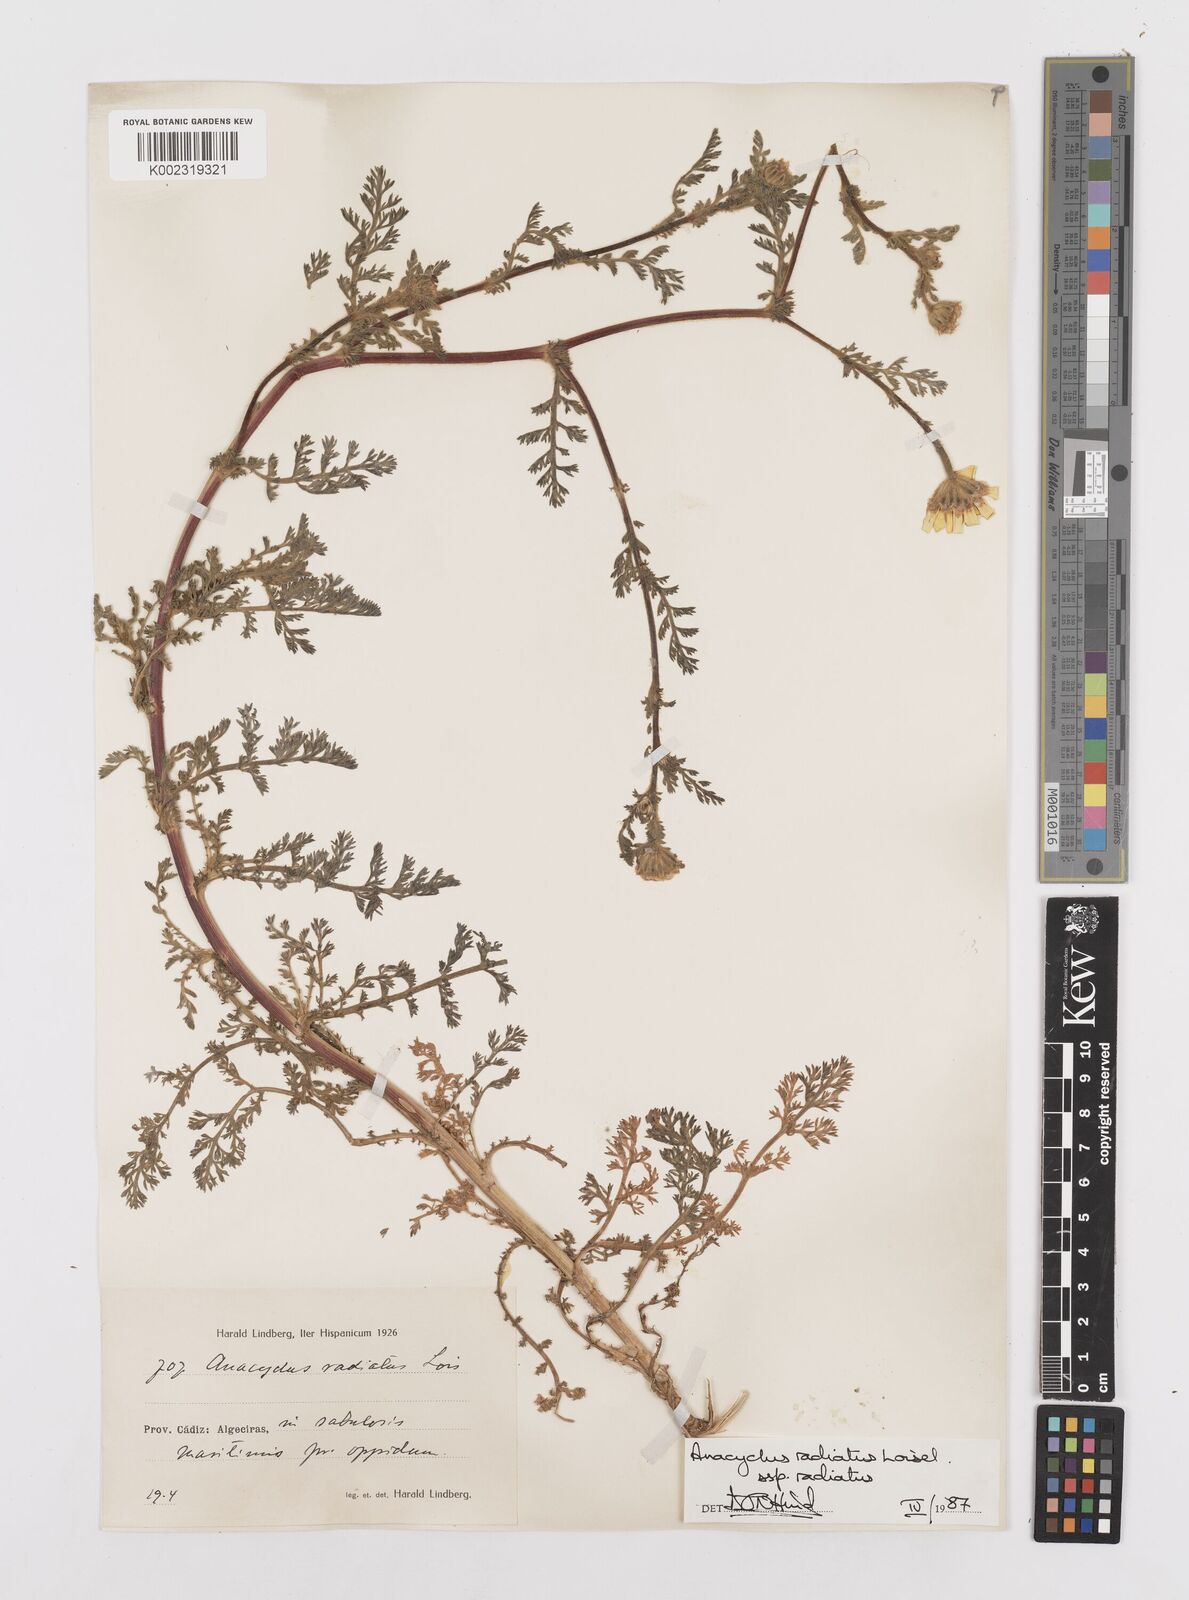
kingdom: Plantae
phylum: Tracheophyta
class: Magnoliopsida
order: Asterales
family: Asteraceae
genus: Anacyclus
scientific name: Anacyclus radiatus
